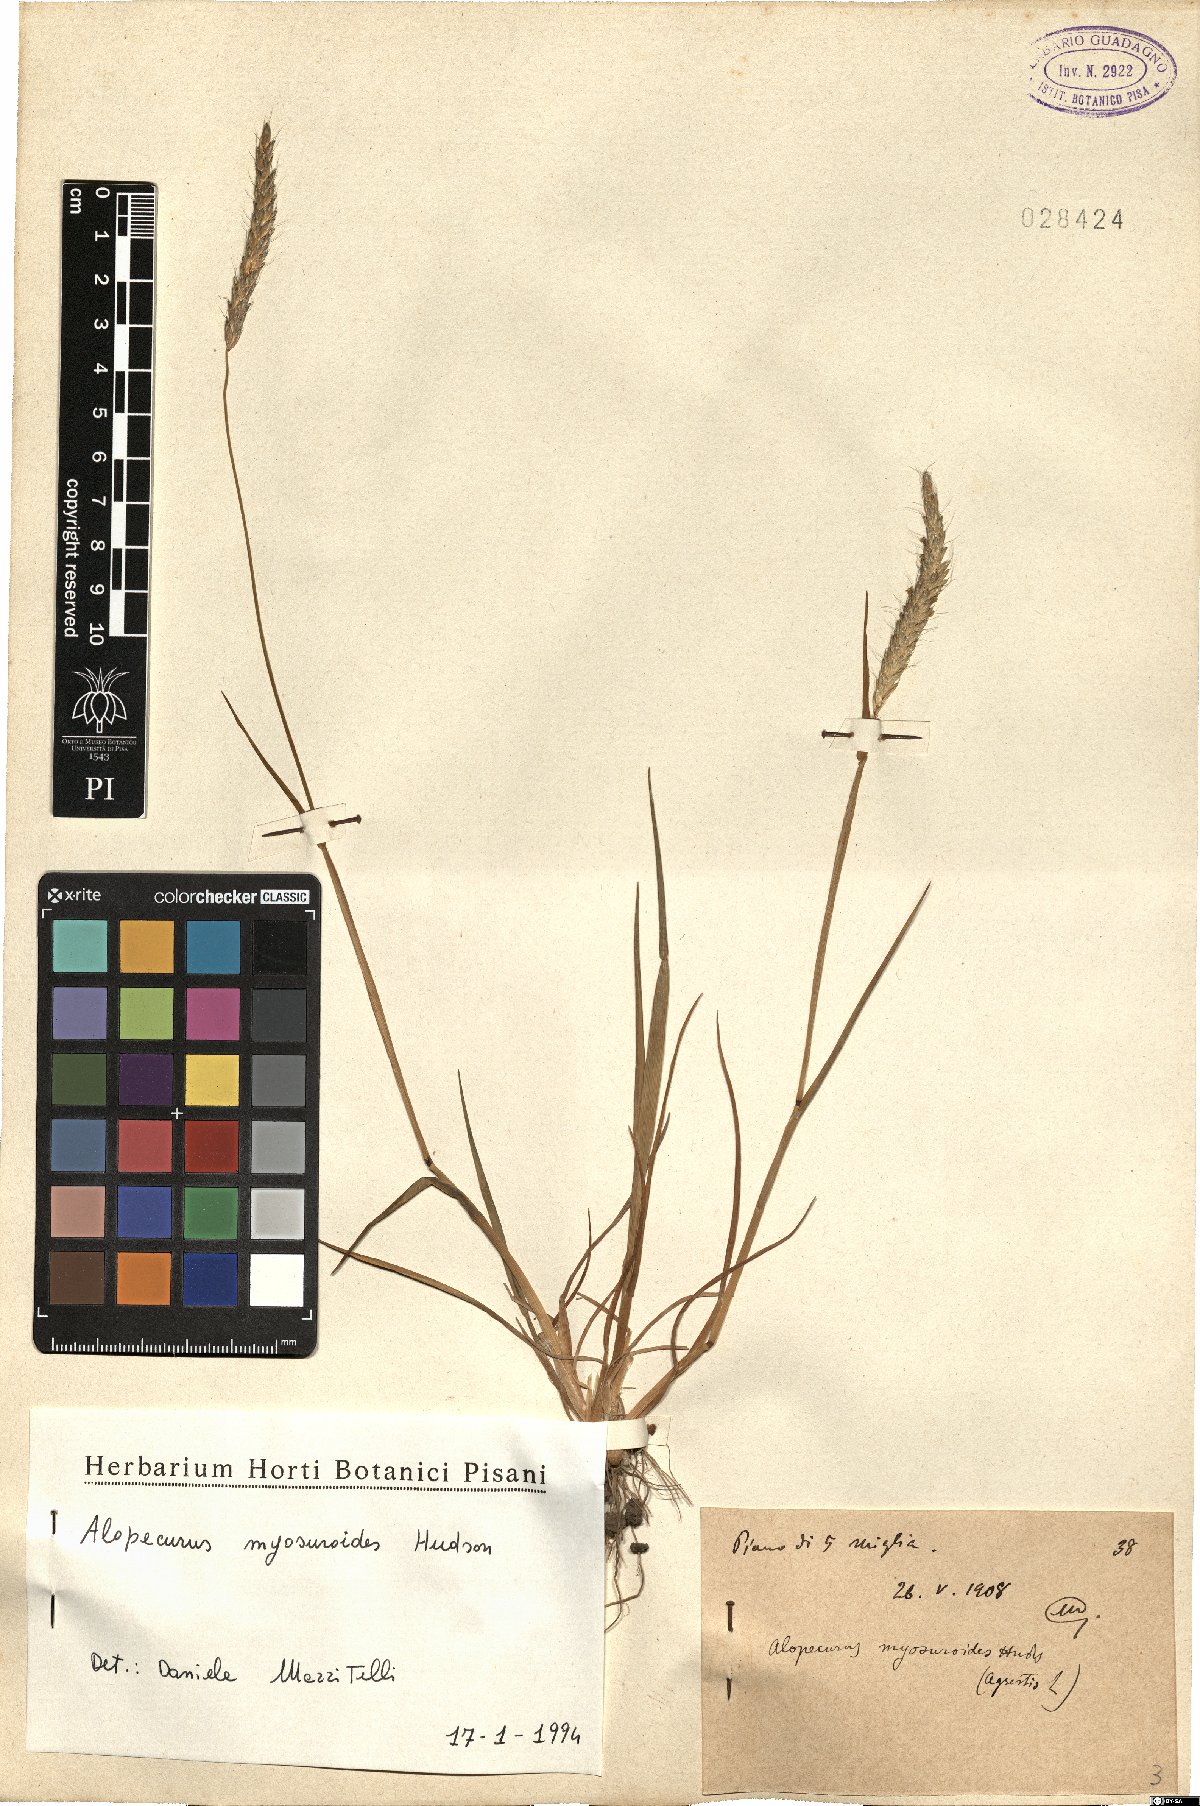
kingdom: Plantae
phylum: Tracheophyta
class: Liliopsida
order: Poales
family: Poaceae
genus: Alopecurus
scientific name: Alopecurus myosuroides
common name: Black-grass
